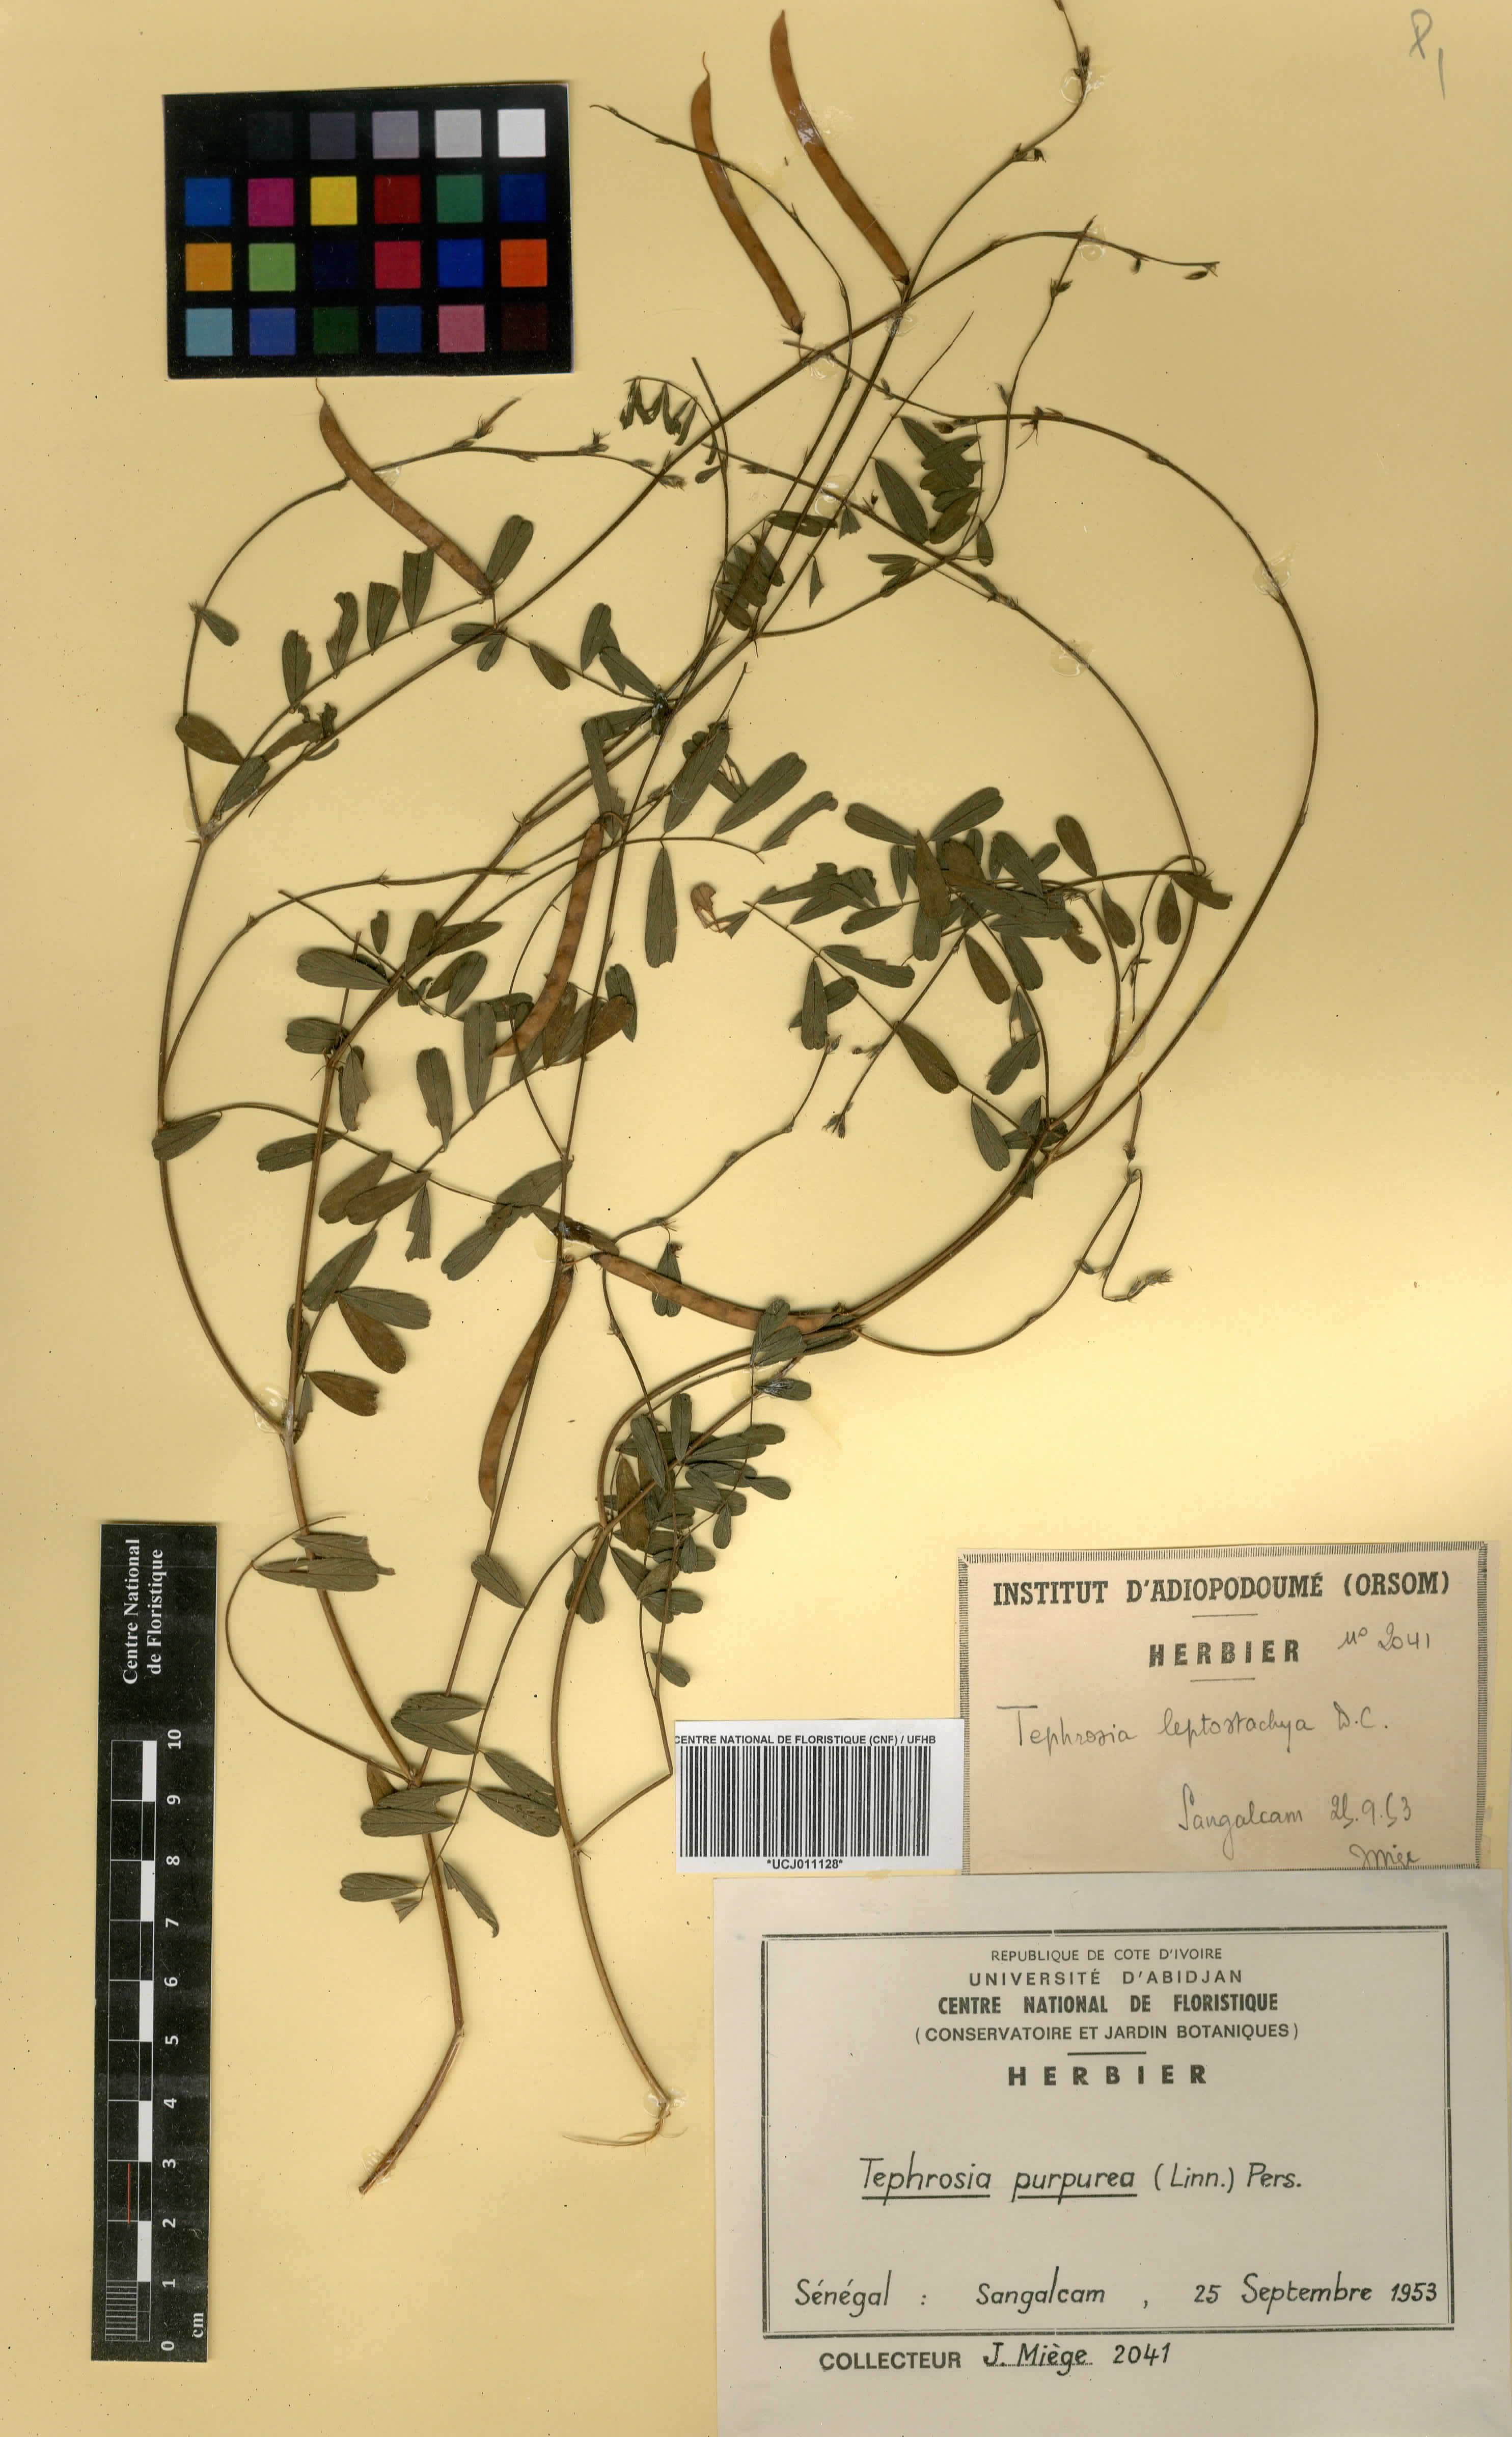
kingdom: Plantae
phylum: Tracheophyta
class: Magnoliopsida
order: Fabales
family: Fabaceae
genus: Tephrosia
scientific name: Tephrosia purpurea
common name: Fishpoison
